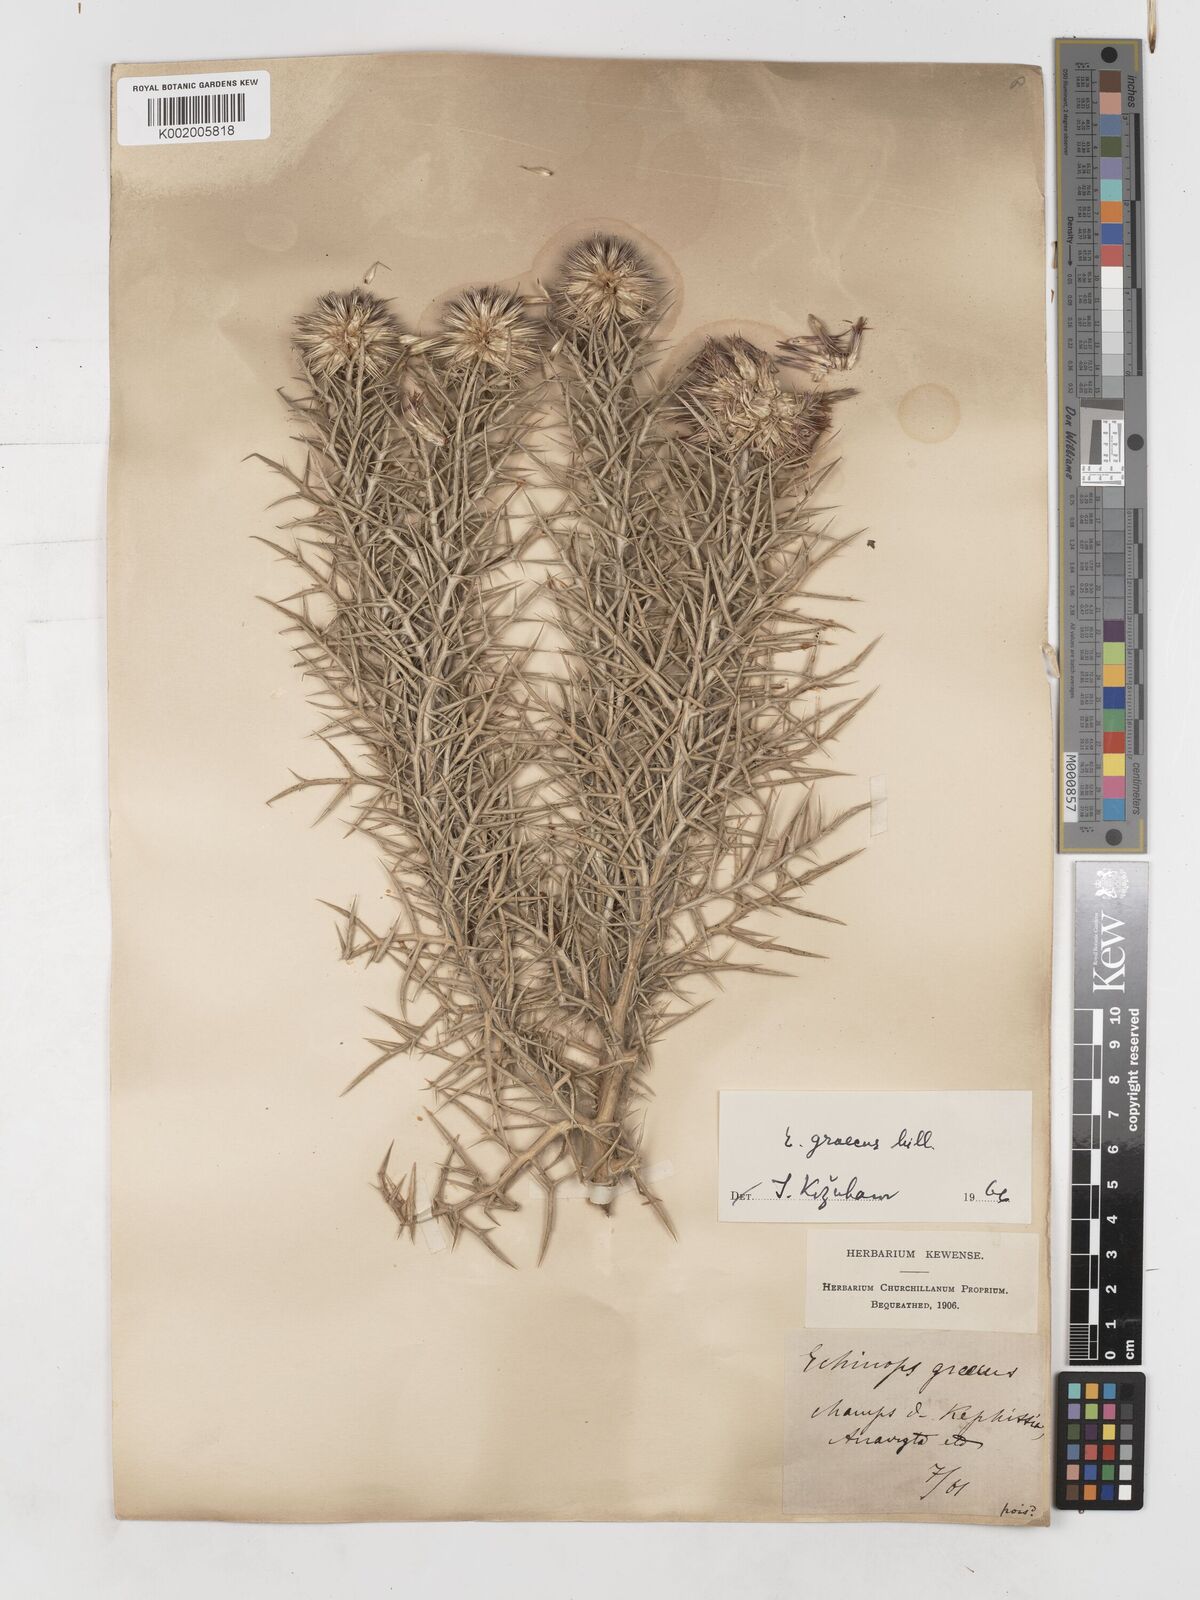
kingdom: Plantae
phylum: Tracheophyta
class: Magnoliopsida
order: Asterales
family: Asteraceae
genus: Echinops
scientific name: Echinops graecus
